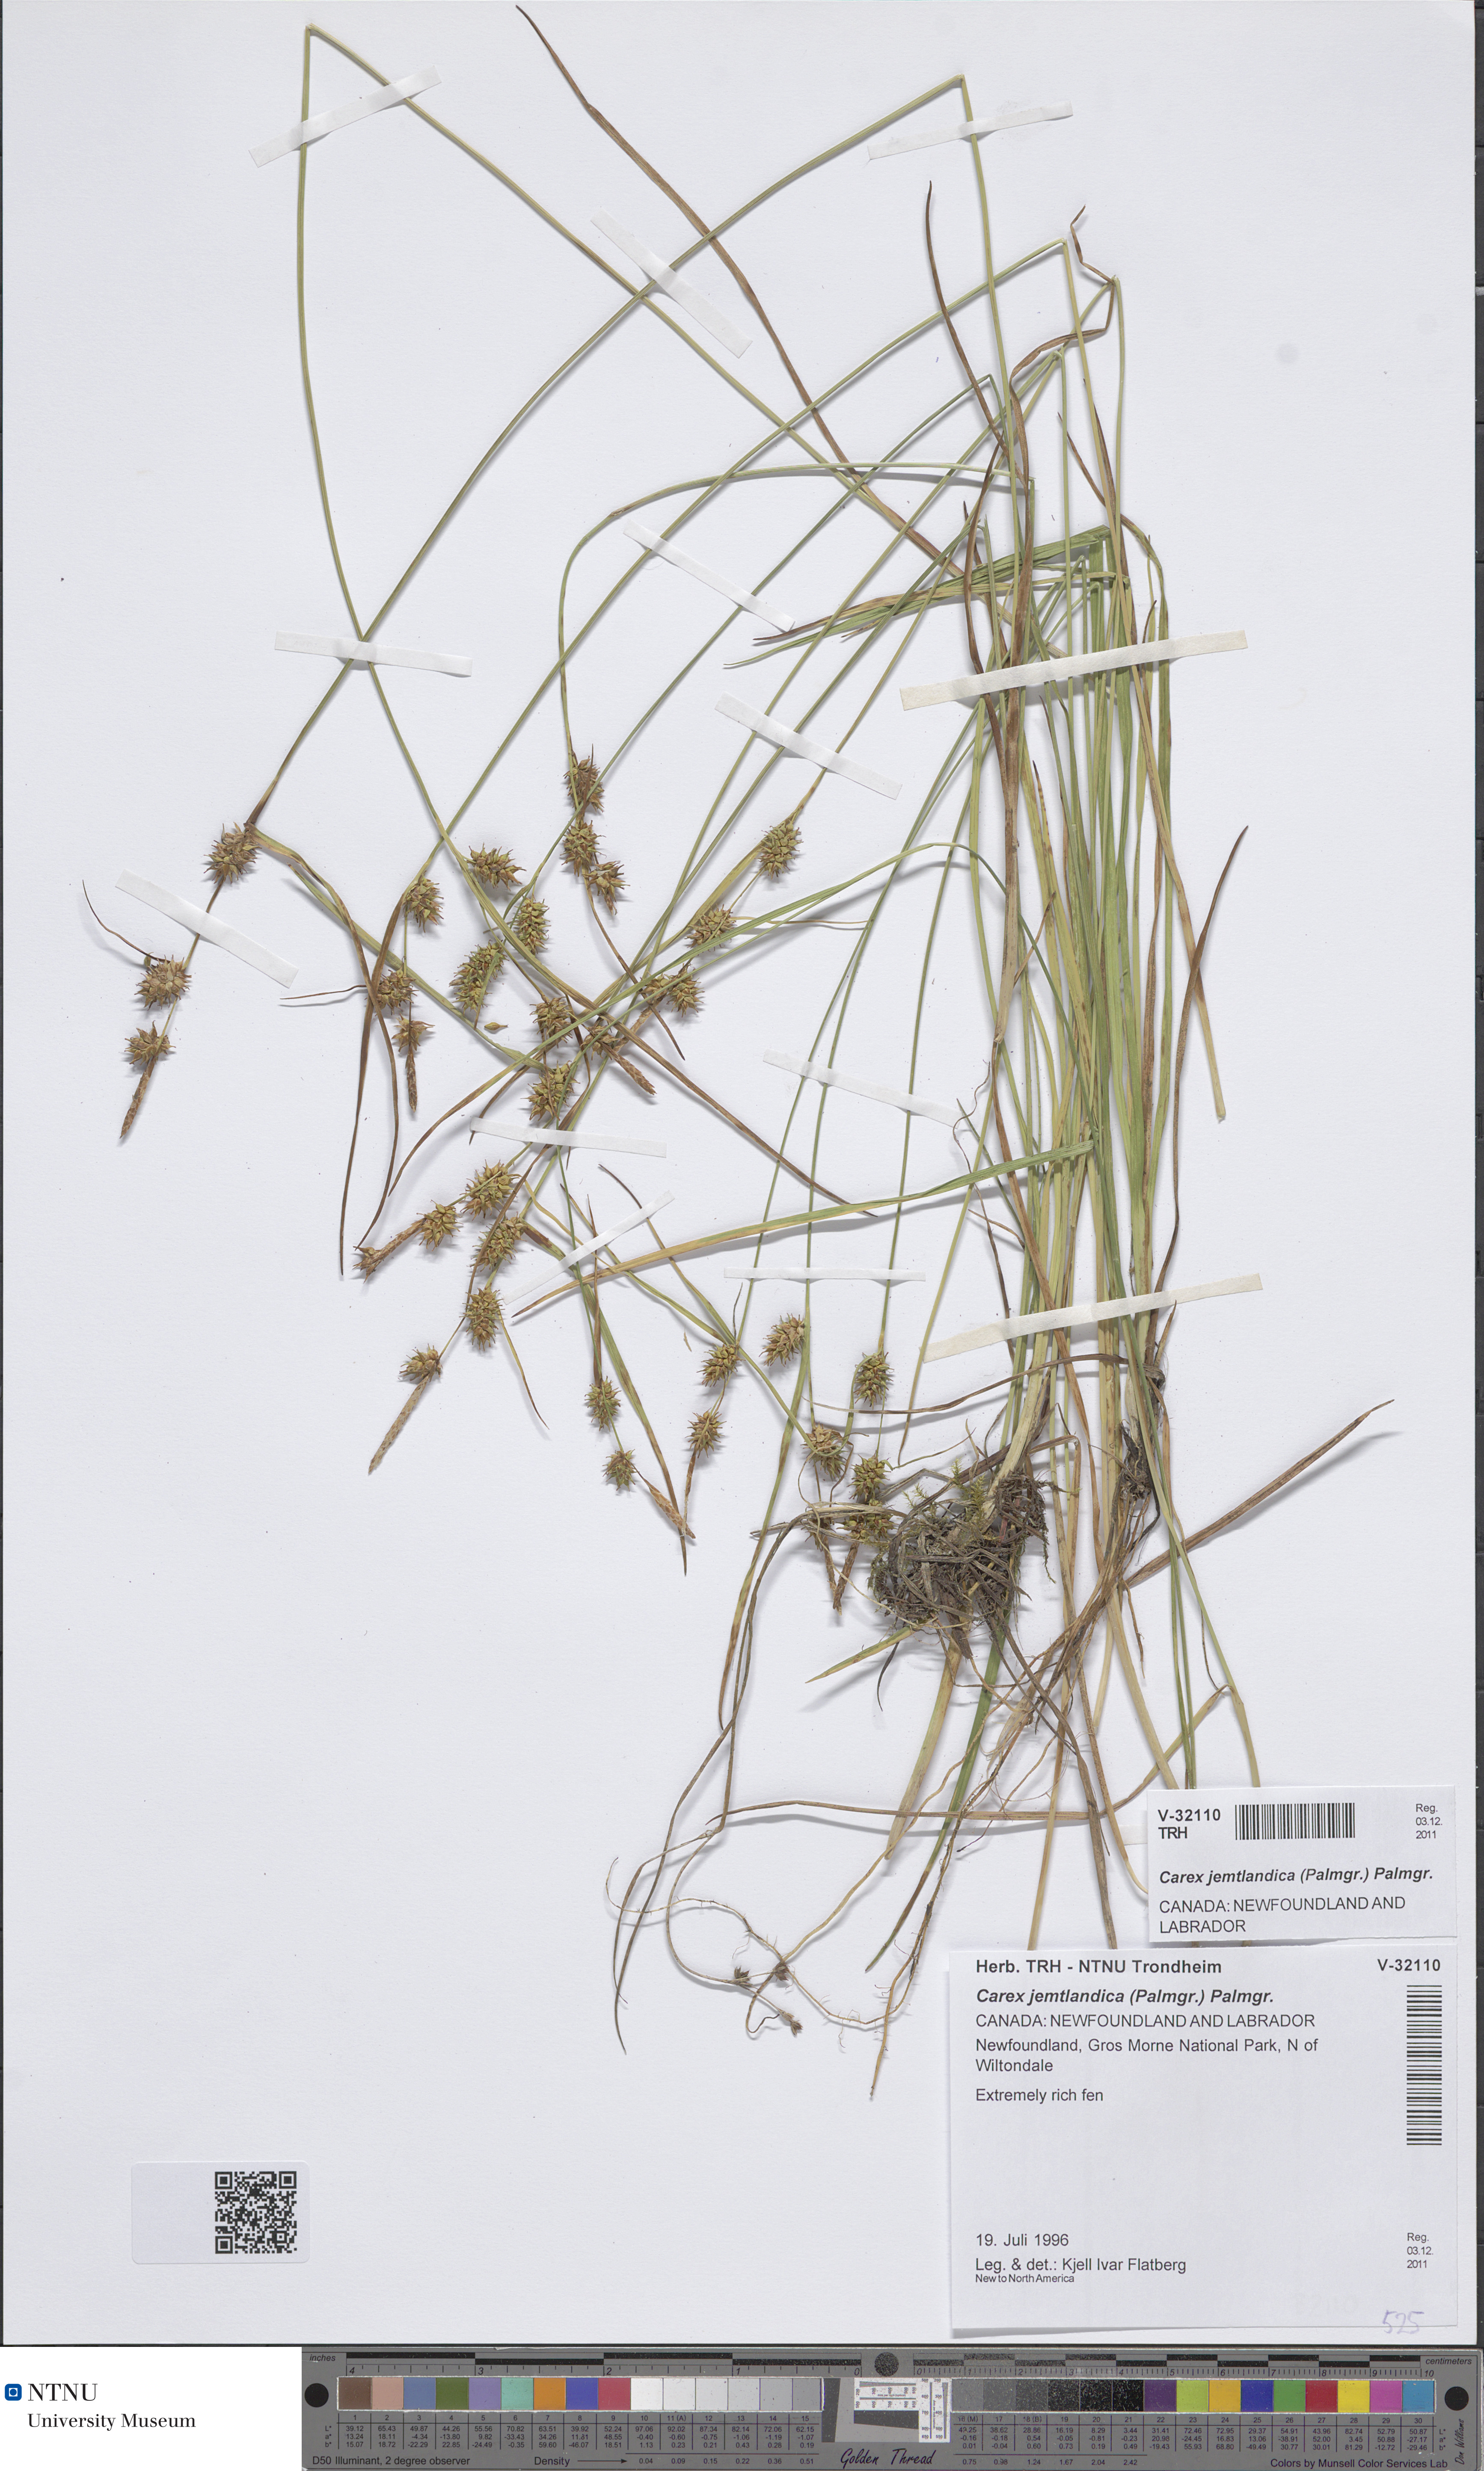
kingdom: Plantae
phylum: Tracheophyta
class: Liliopsida
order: Poales
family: Cyperaceae
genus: Carex
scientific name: Carex lepidocarpa
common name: Long-stalked yellow-sedge
